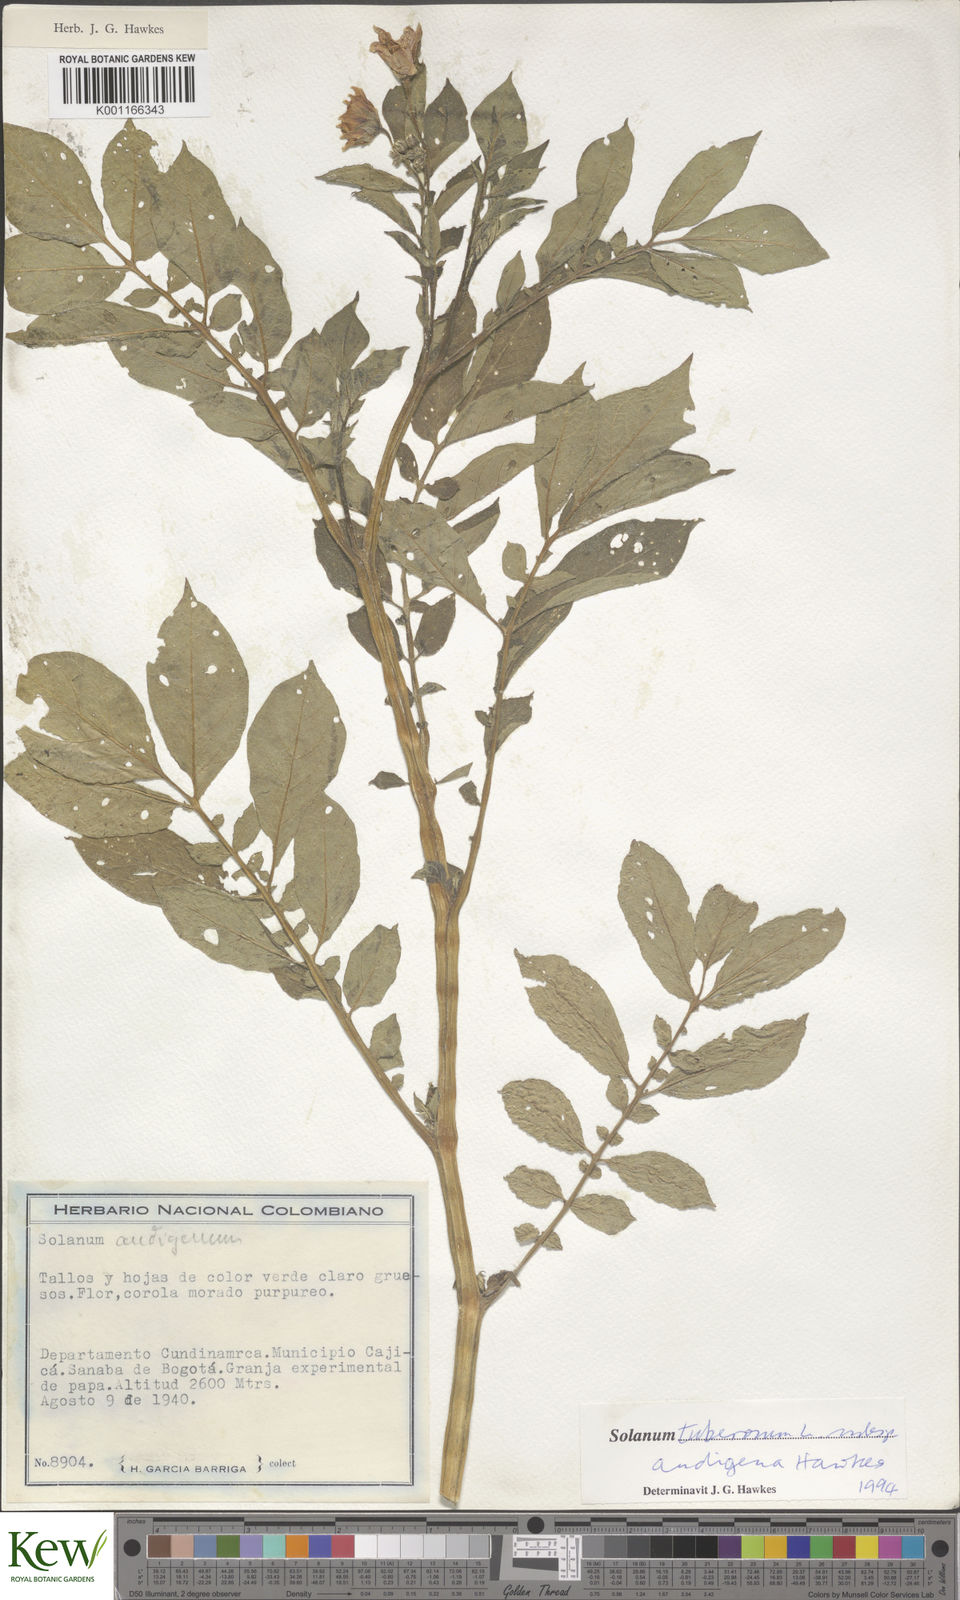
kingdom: Plantae
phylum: Tracheophyta
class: Magnoliopsida
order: Solanales
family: Solanaceae
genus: Solanum
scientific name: Solanum tuberosum
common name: Potato
